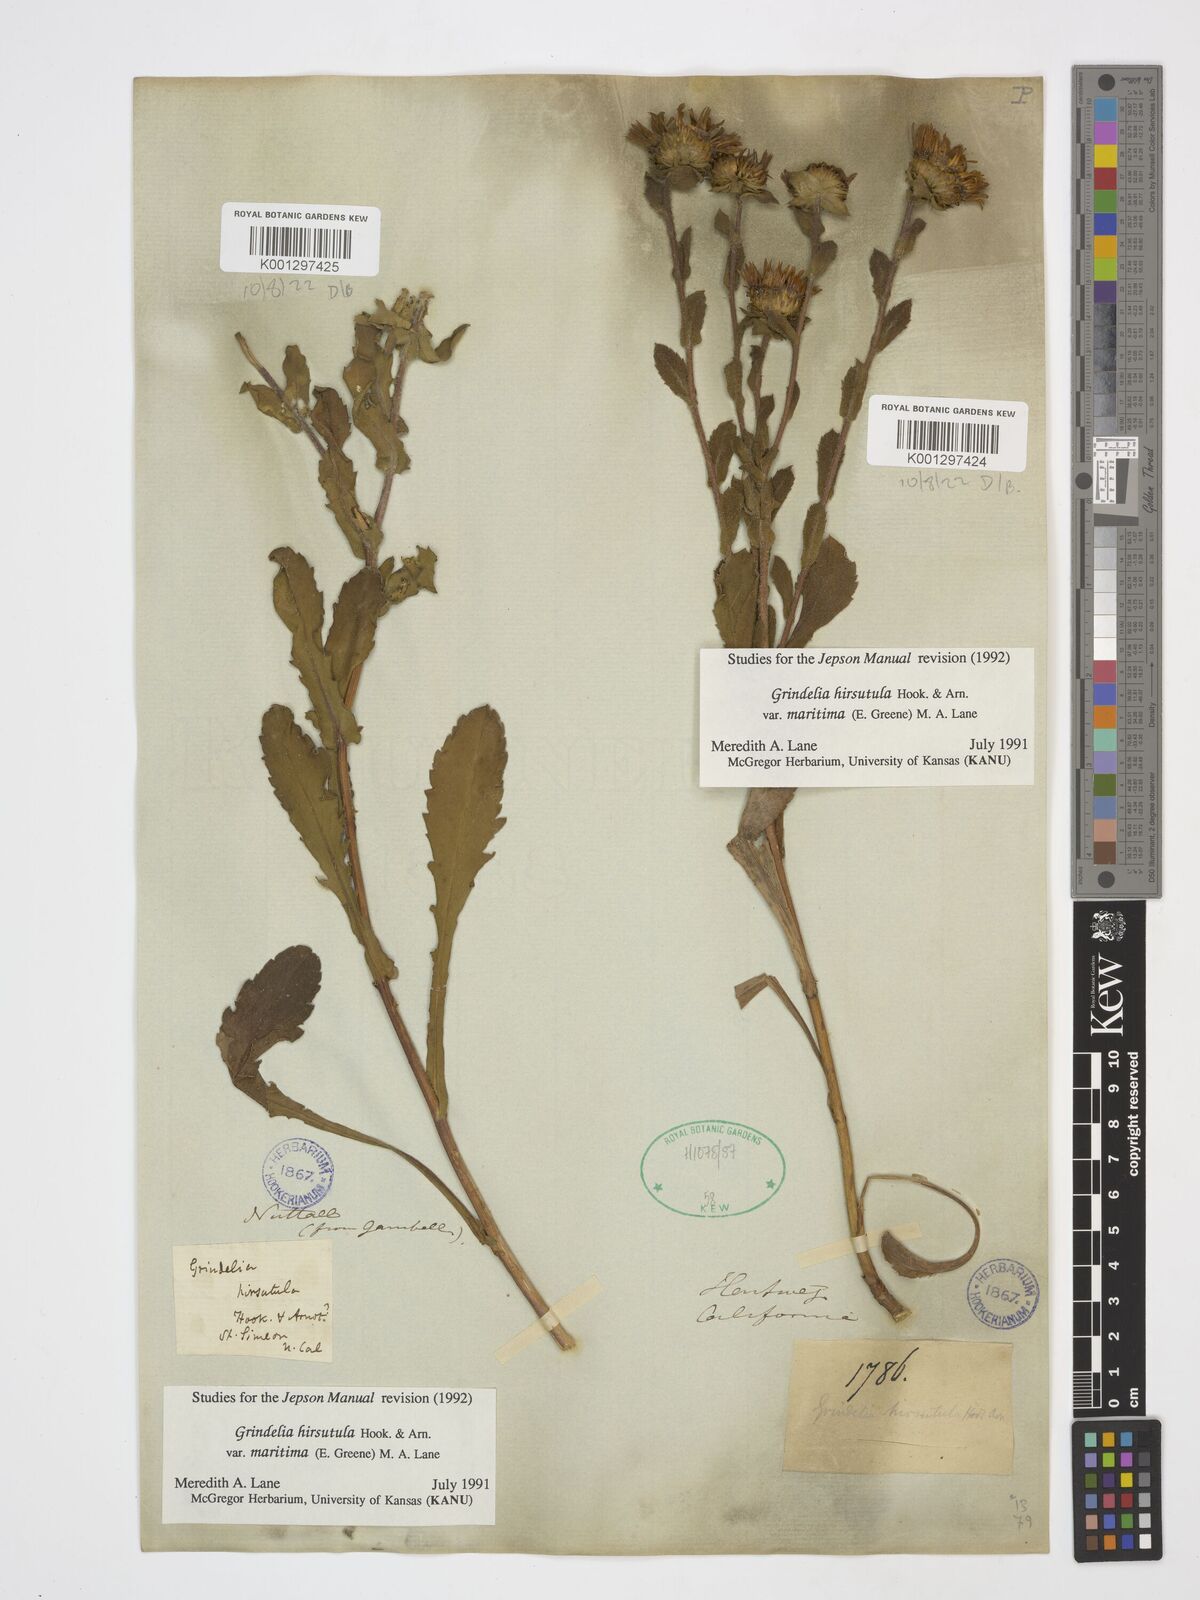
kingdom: Plantae
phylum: Tracheophyta
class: Magnoliopsida
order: Asterales
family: Asteraceae
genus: Grindelia
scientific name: Grindelia hirsutula
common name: Hairy gumweed
